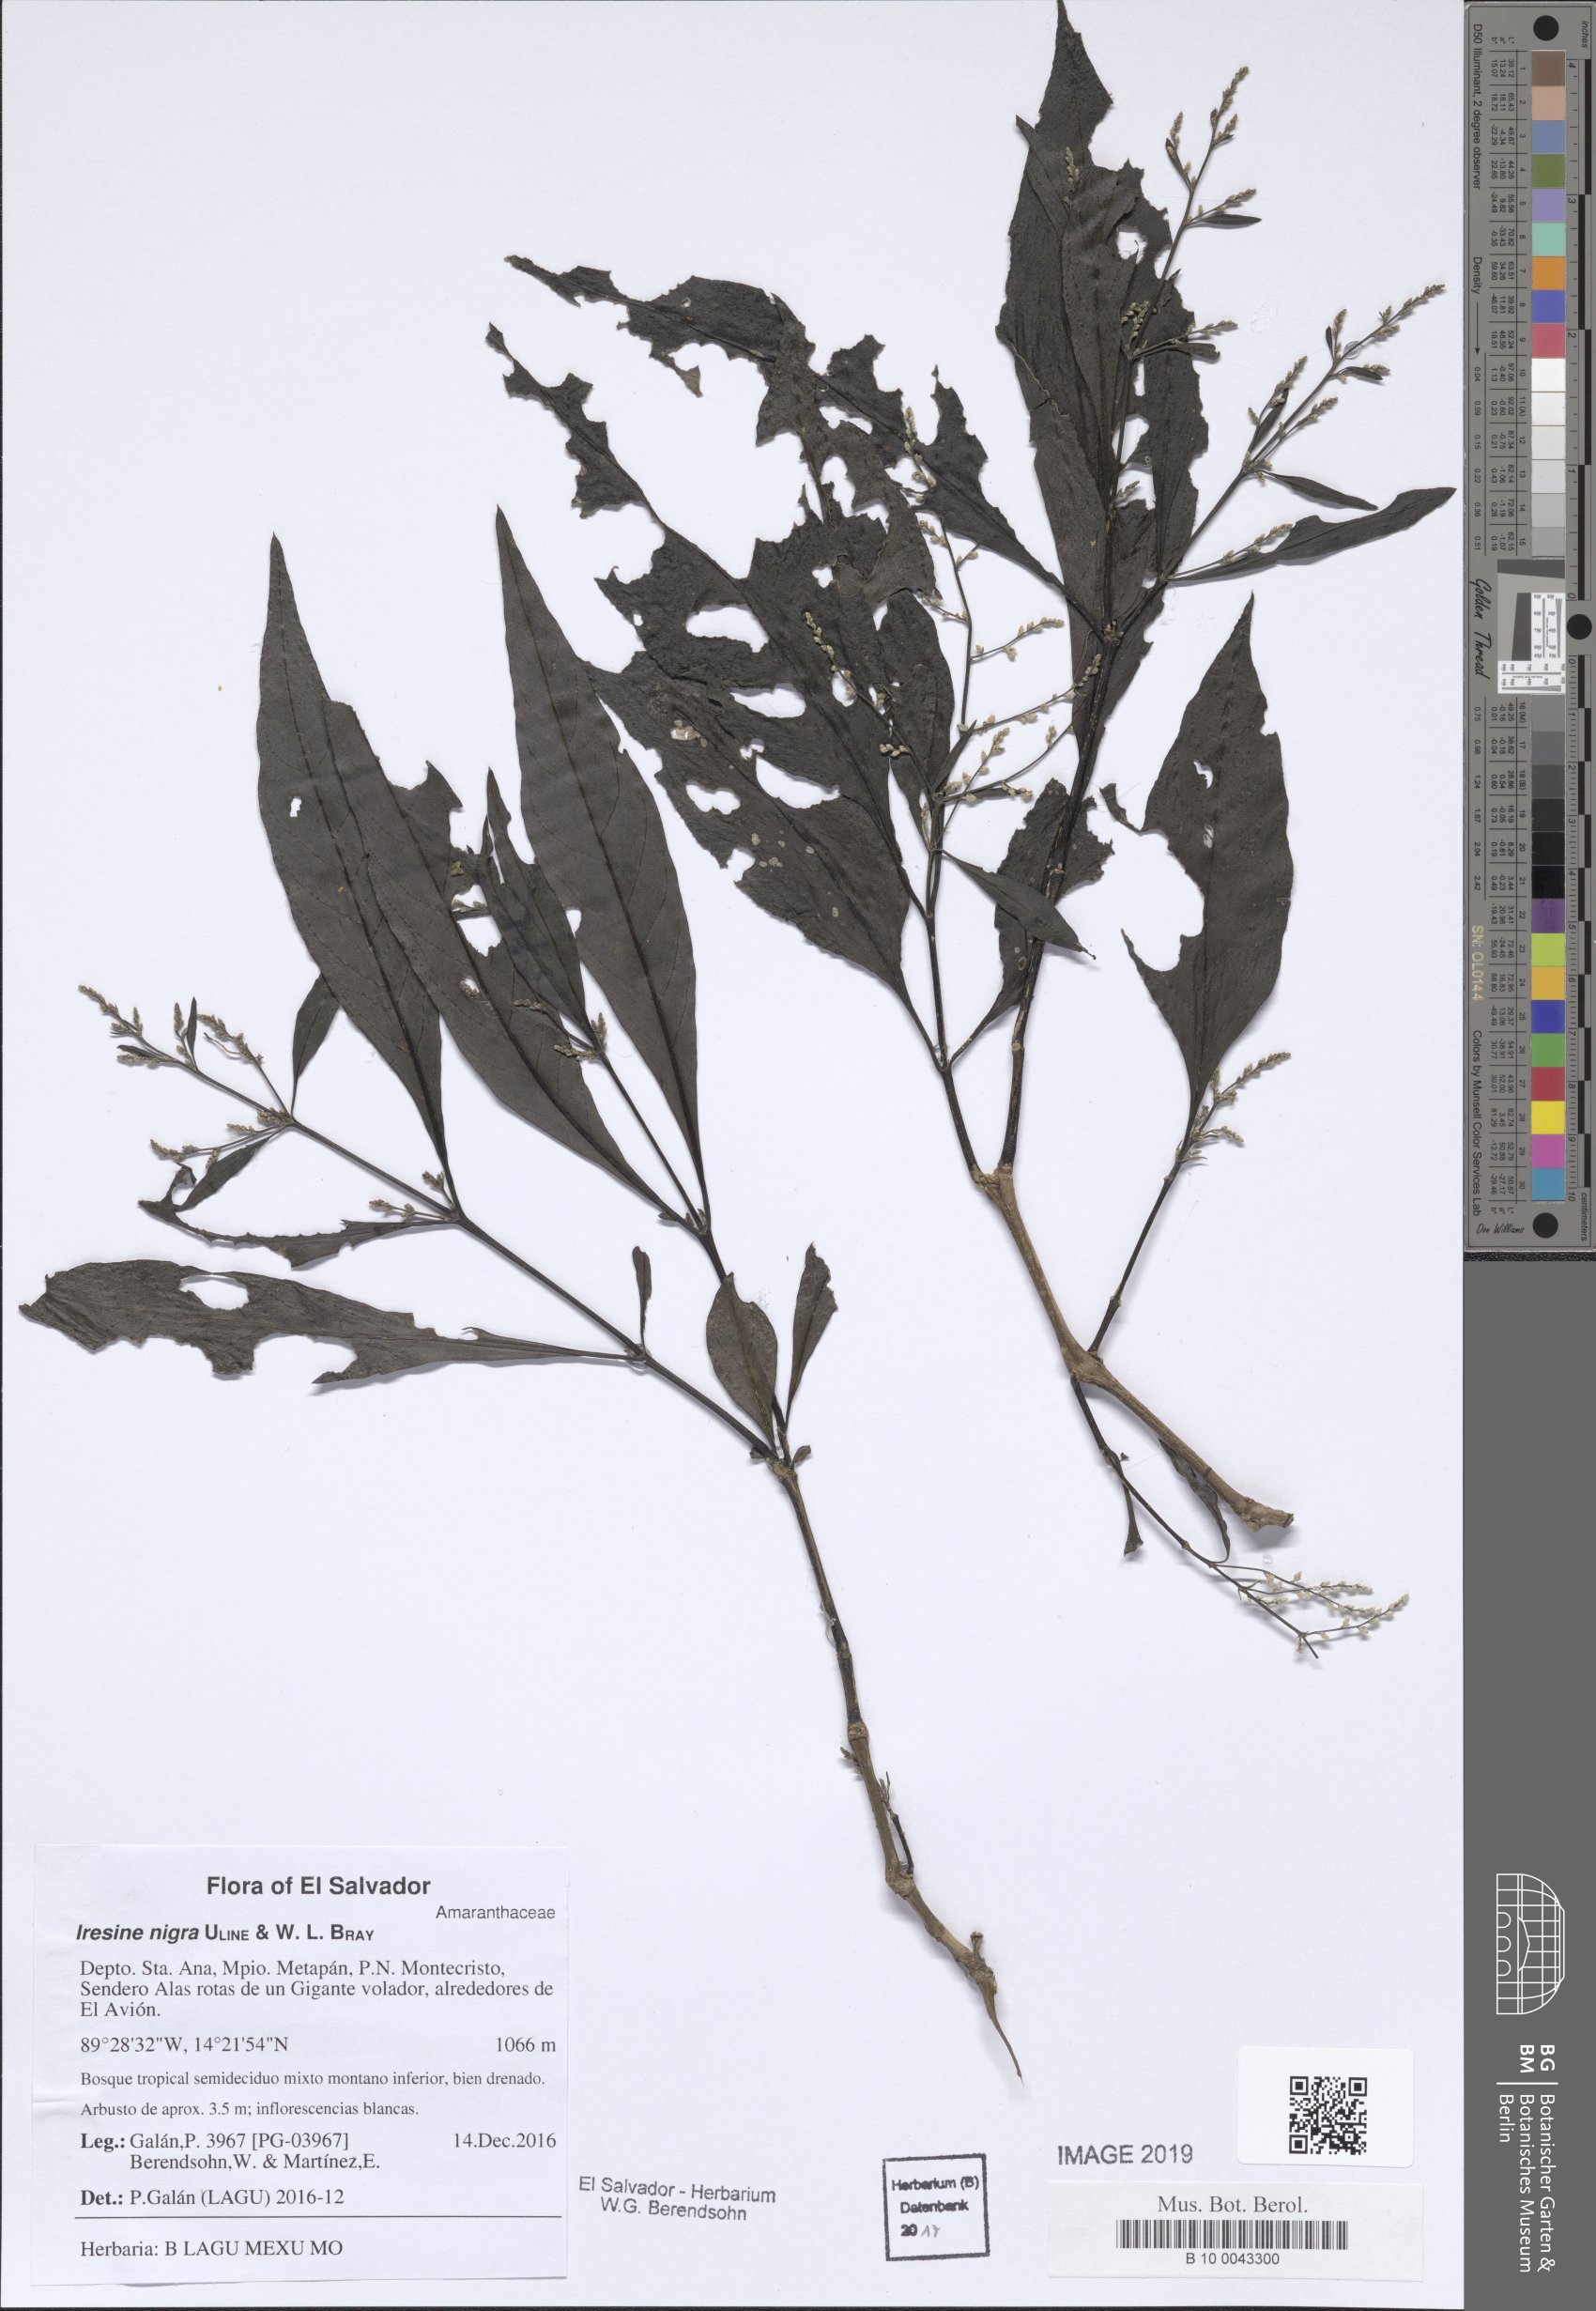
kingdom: Plantae
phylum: Tracheophyta
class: Magnoliopsida
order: Caryophyllales
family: Amaranthaceae
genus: Iresine
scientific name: Iresine nigra
